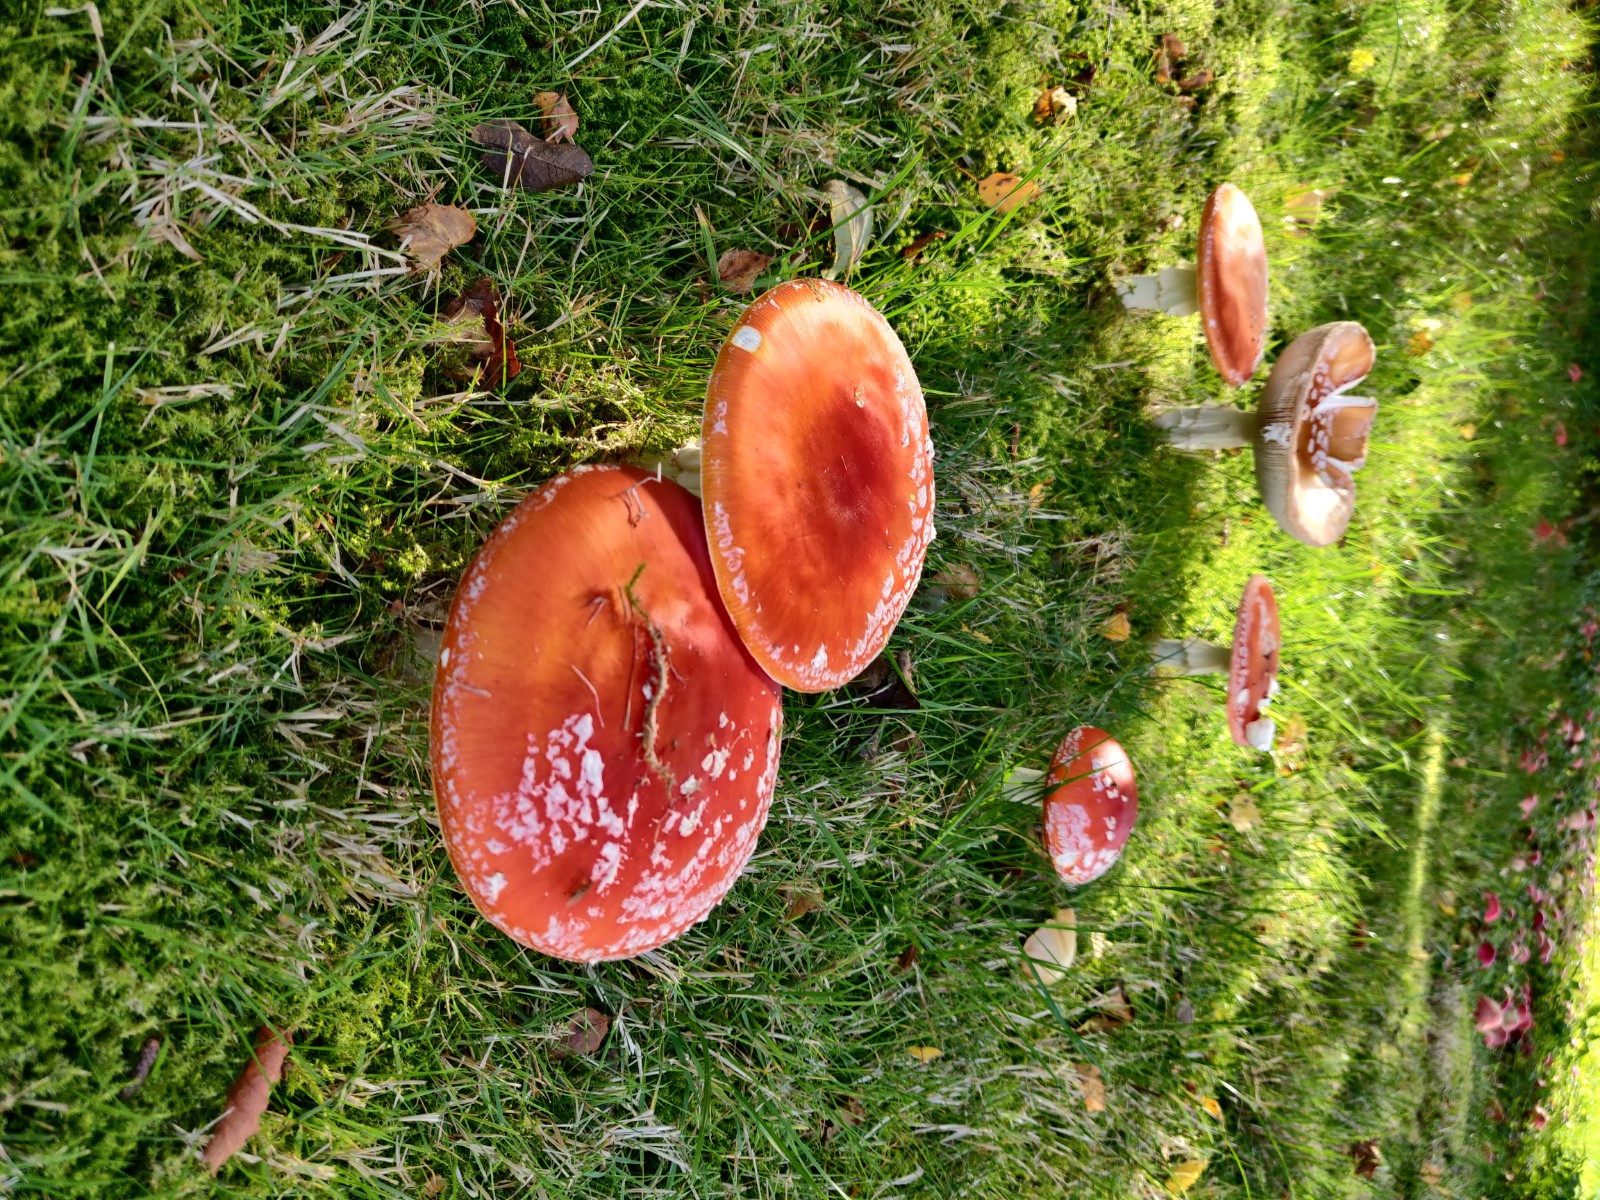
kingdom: Fungi
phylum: Basidiomycota
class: Agaricomycetes
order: Agaricales
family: Amanitaceae
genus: Amanita
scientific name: Amanita muscaria
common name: rød fluesvamp
